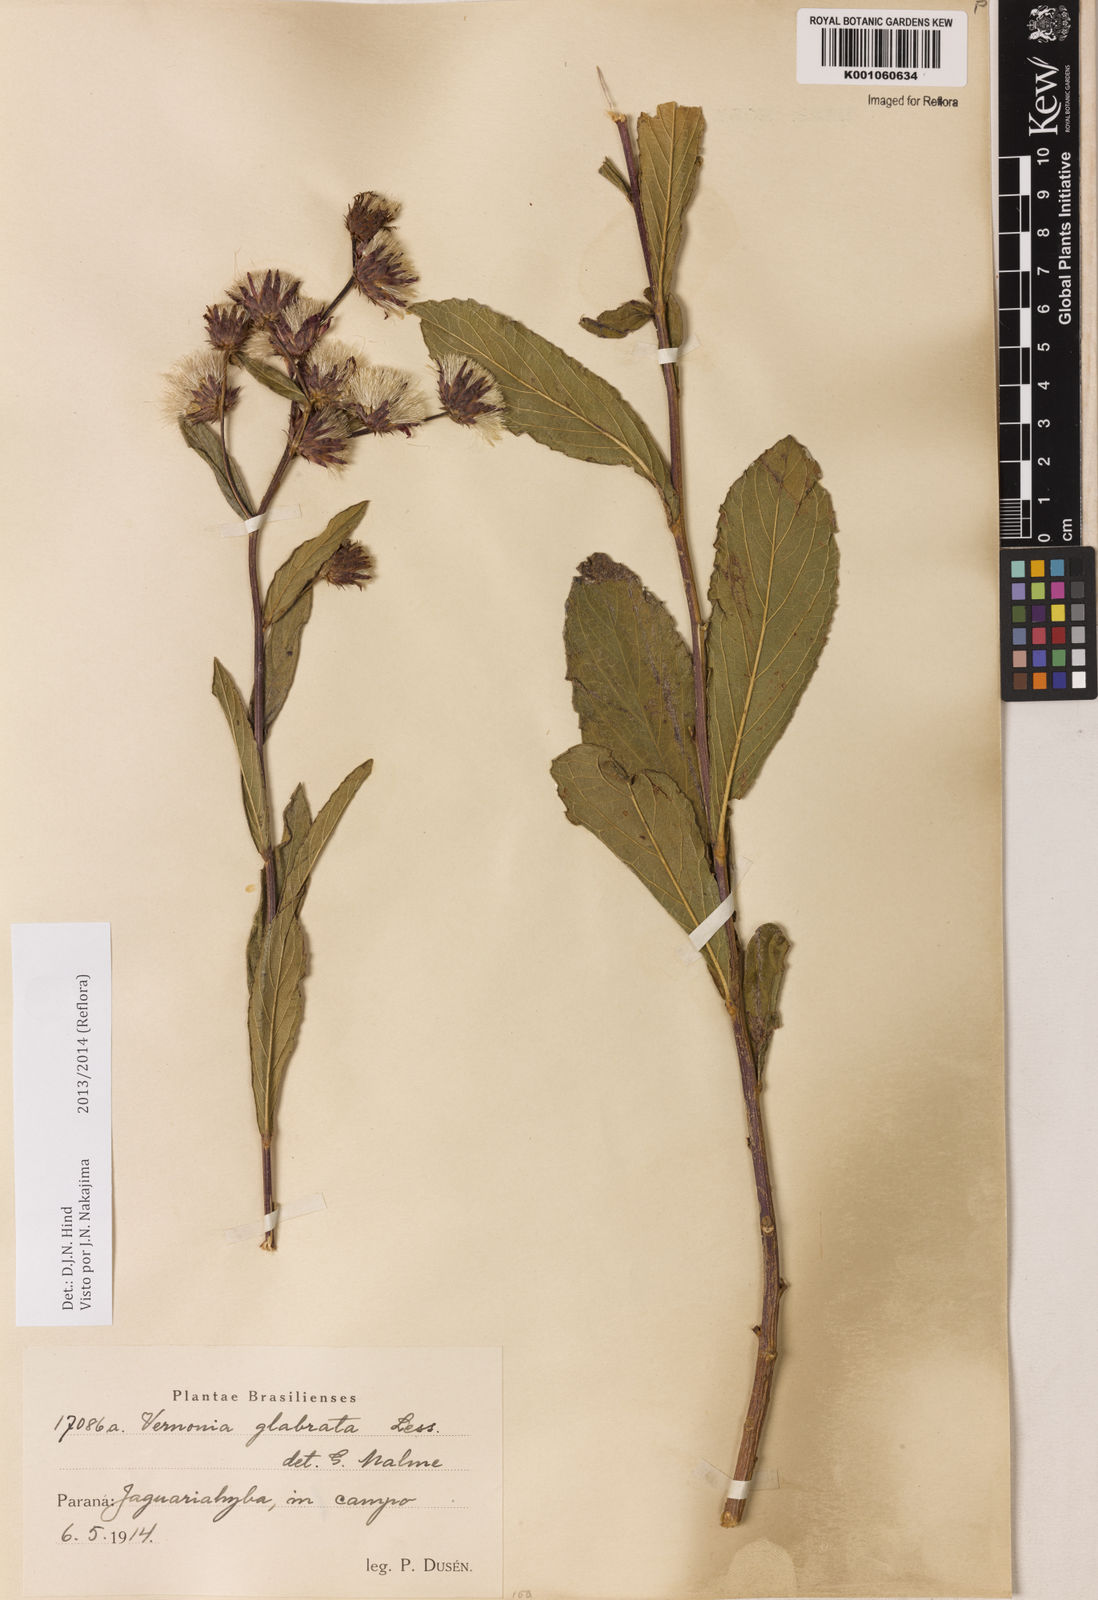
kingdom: Plantae
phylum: Tracheophyta
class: Magnoliopsida
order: Asterales
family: Asteraceae
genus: Lessingianthus
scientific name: Lessingianthus glabratus
